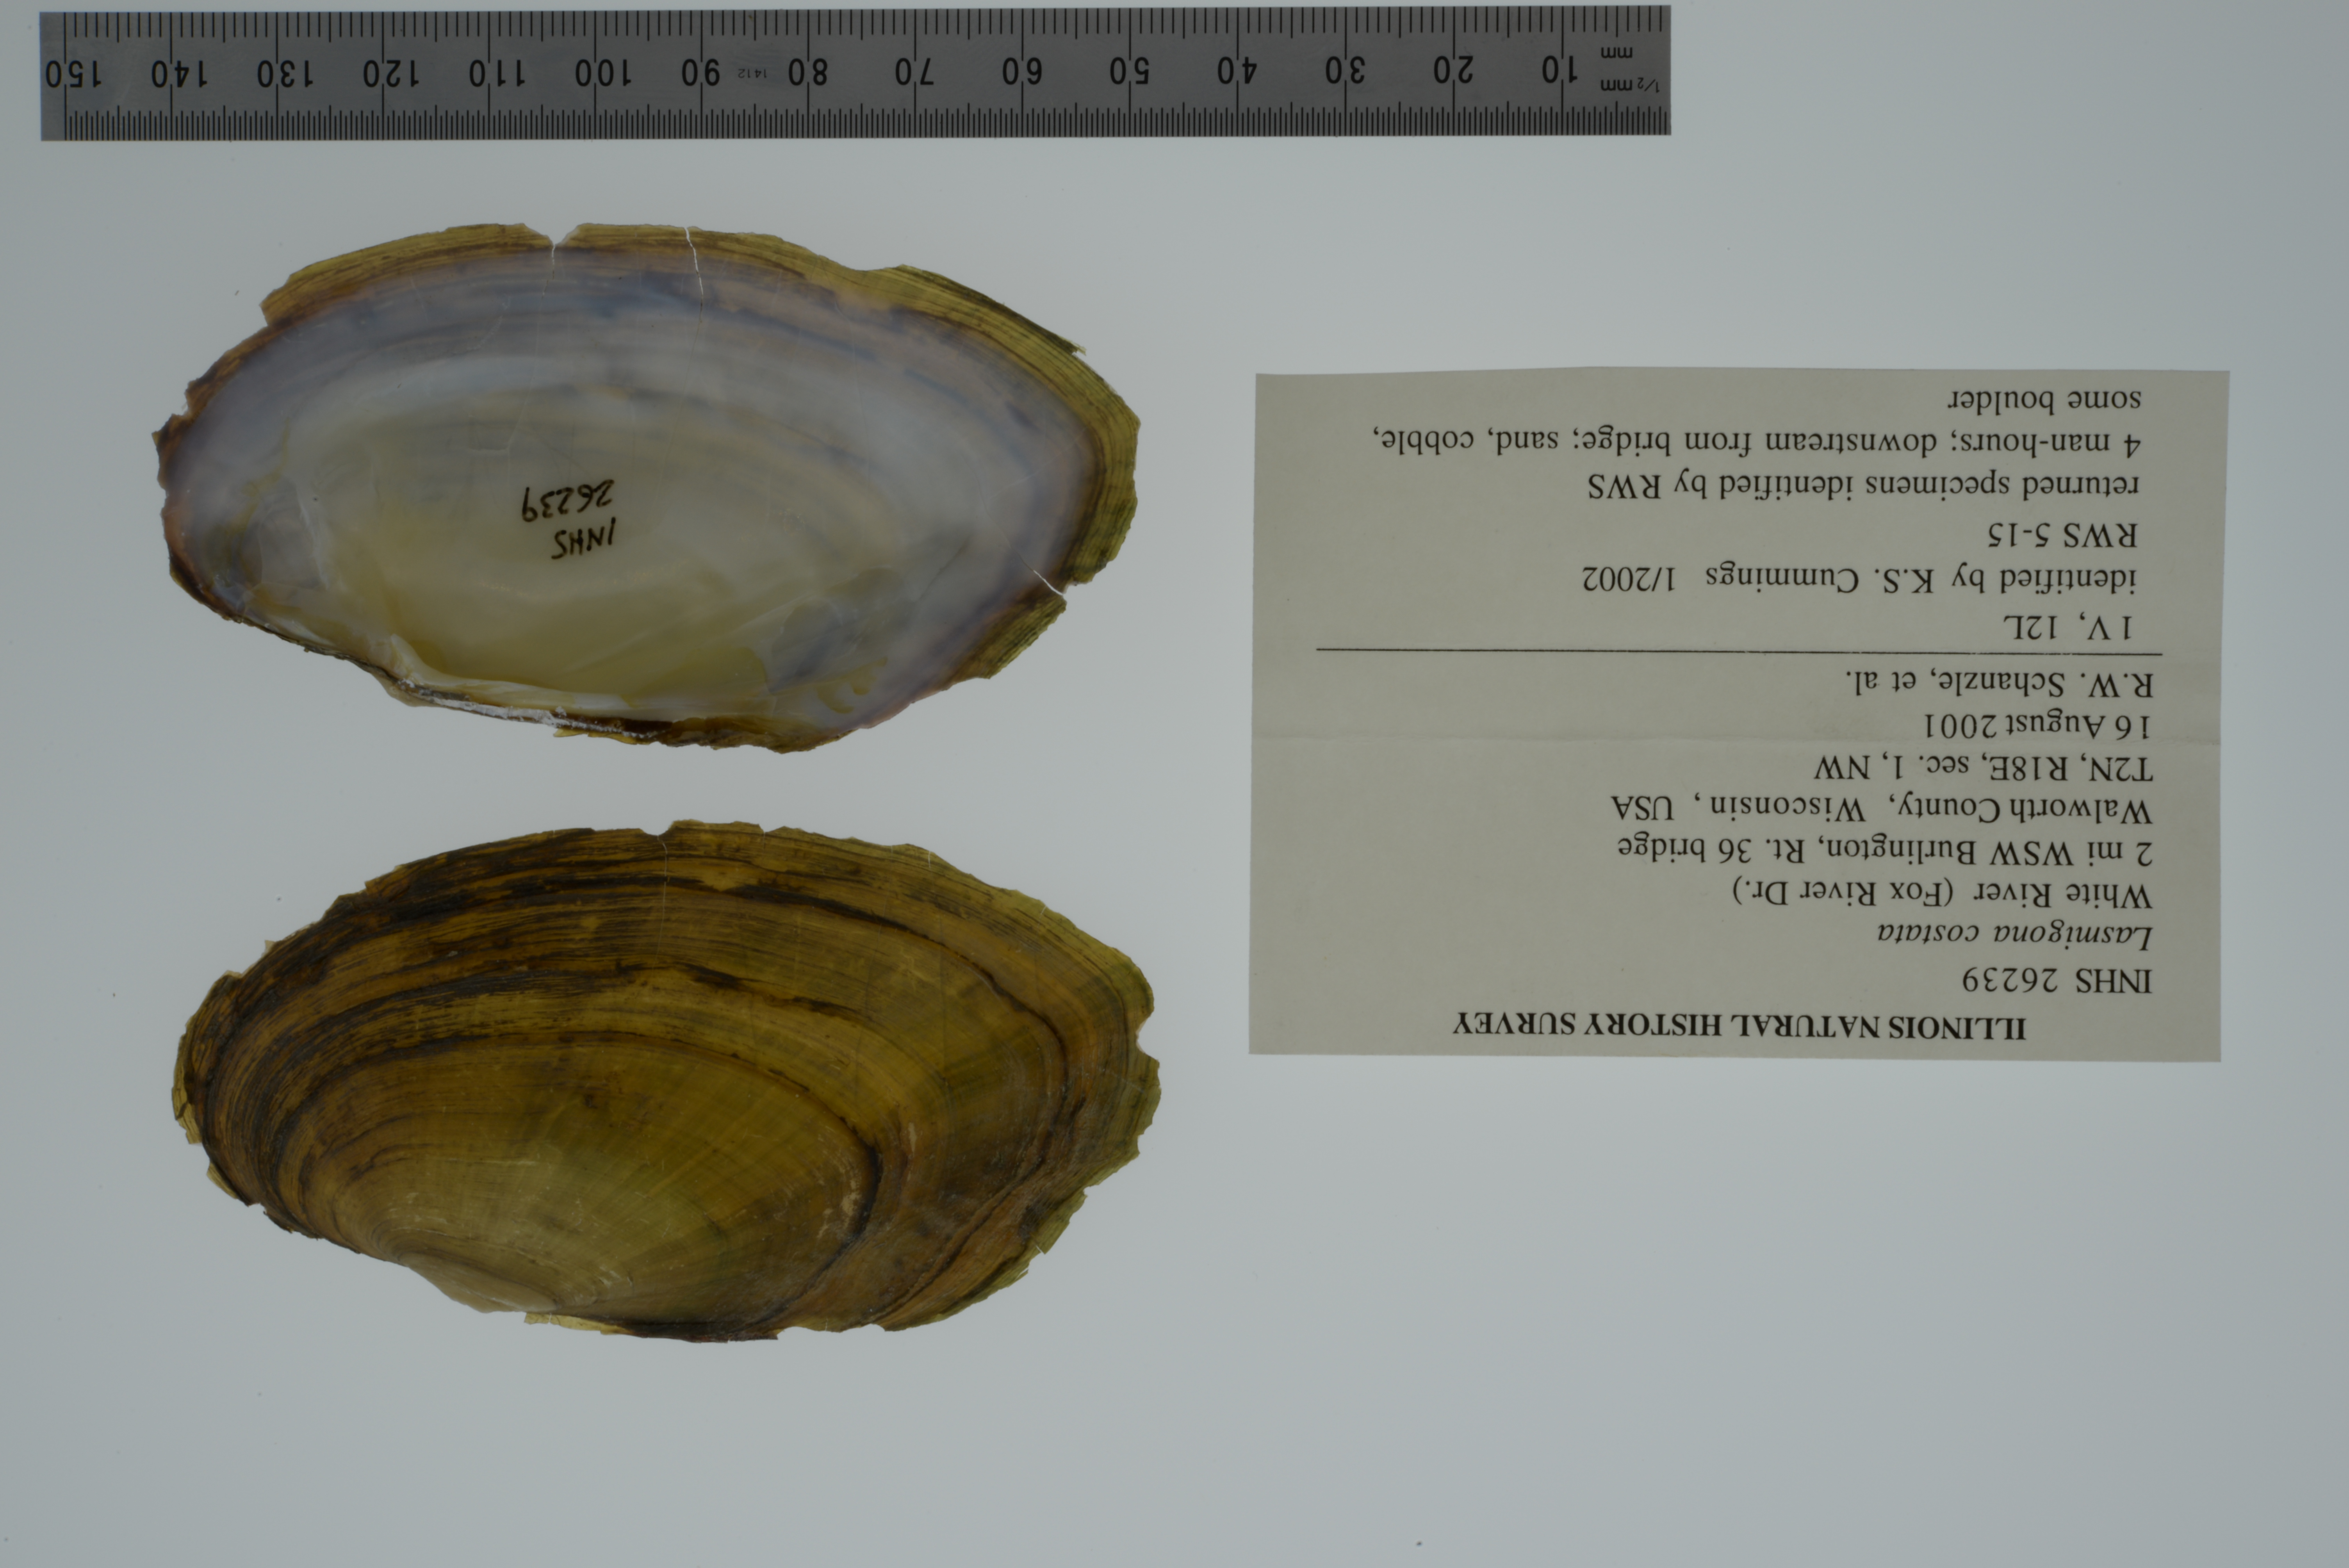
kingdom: Animalia
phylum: Mollusca
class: Bivalvia
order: Unionida
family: Unionidae
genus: Lasmigona
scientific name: Lasmigona costata
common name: Flutedshell
